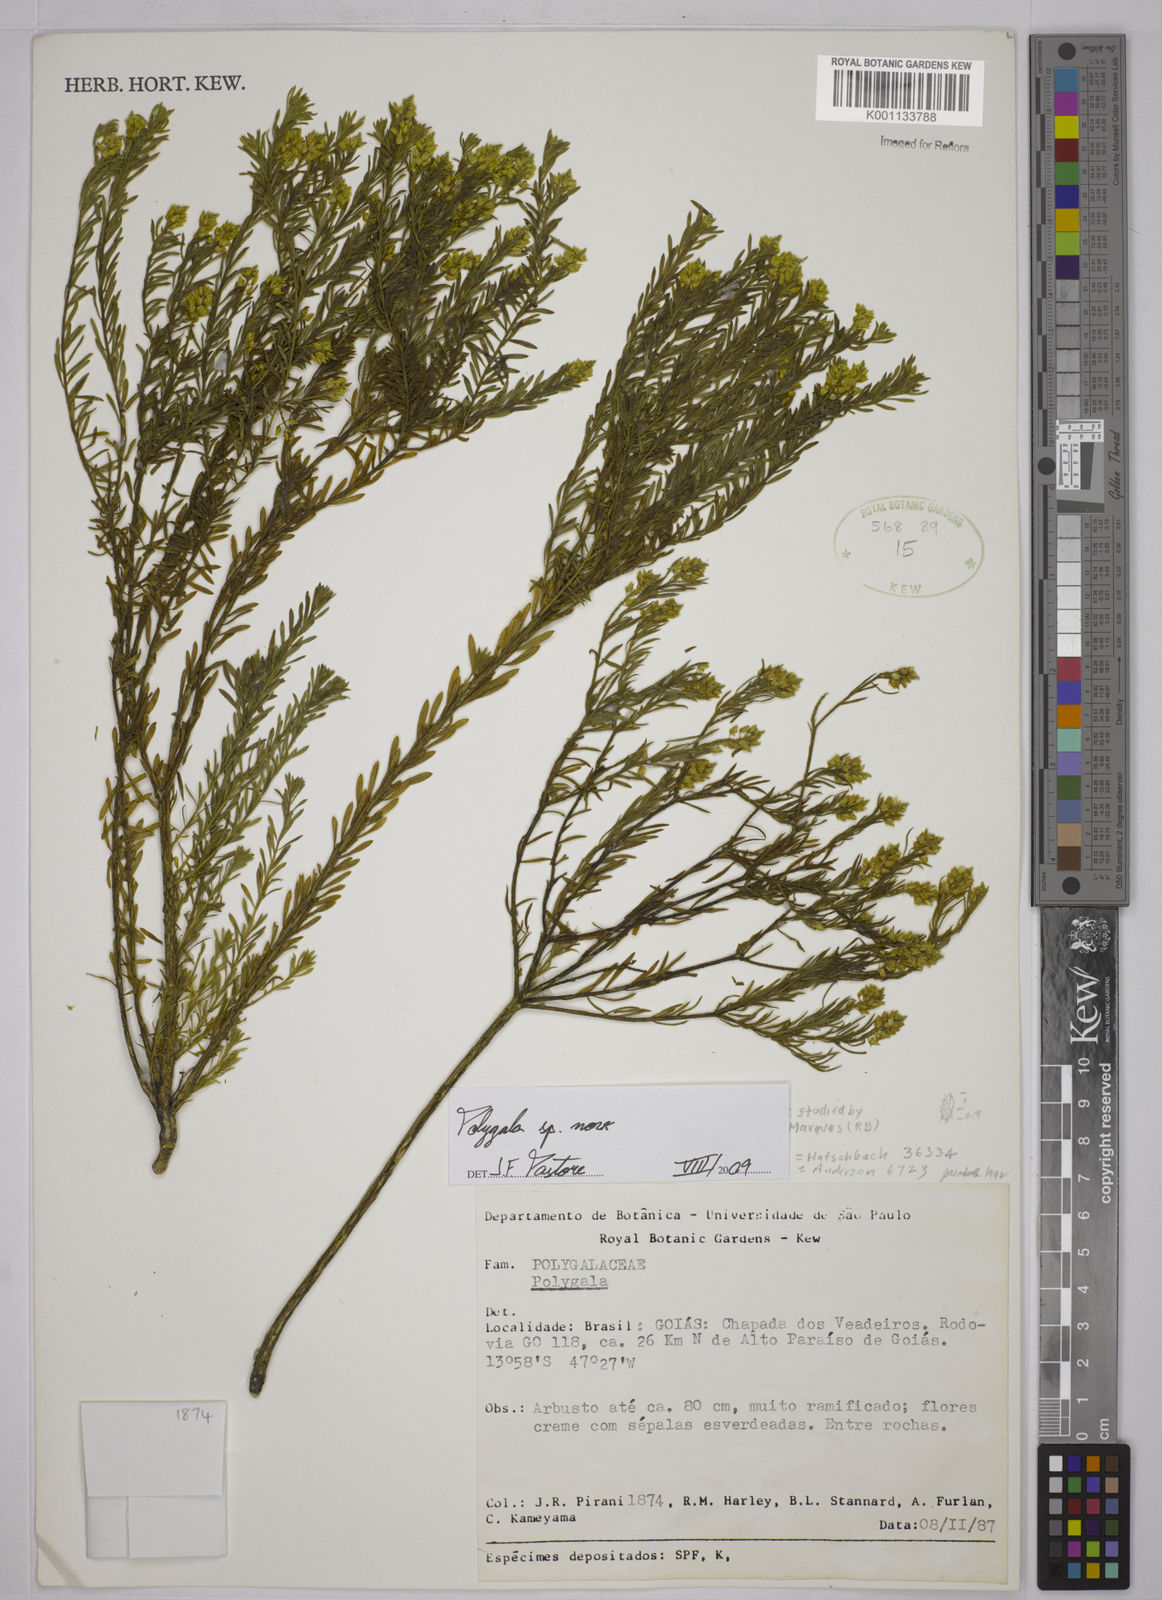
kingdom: Plantae
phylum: Tracheophyta
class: Magnoliopsida
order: Fabales
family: Polygalaceae
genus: Polygala
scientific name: Polygala judithea
